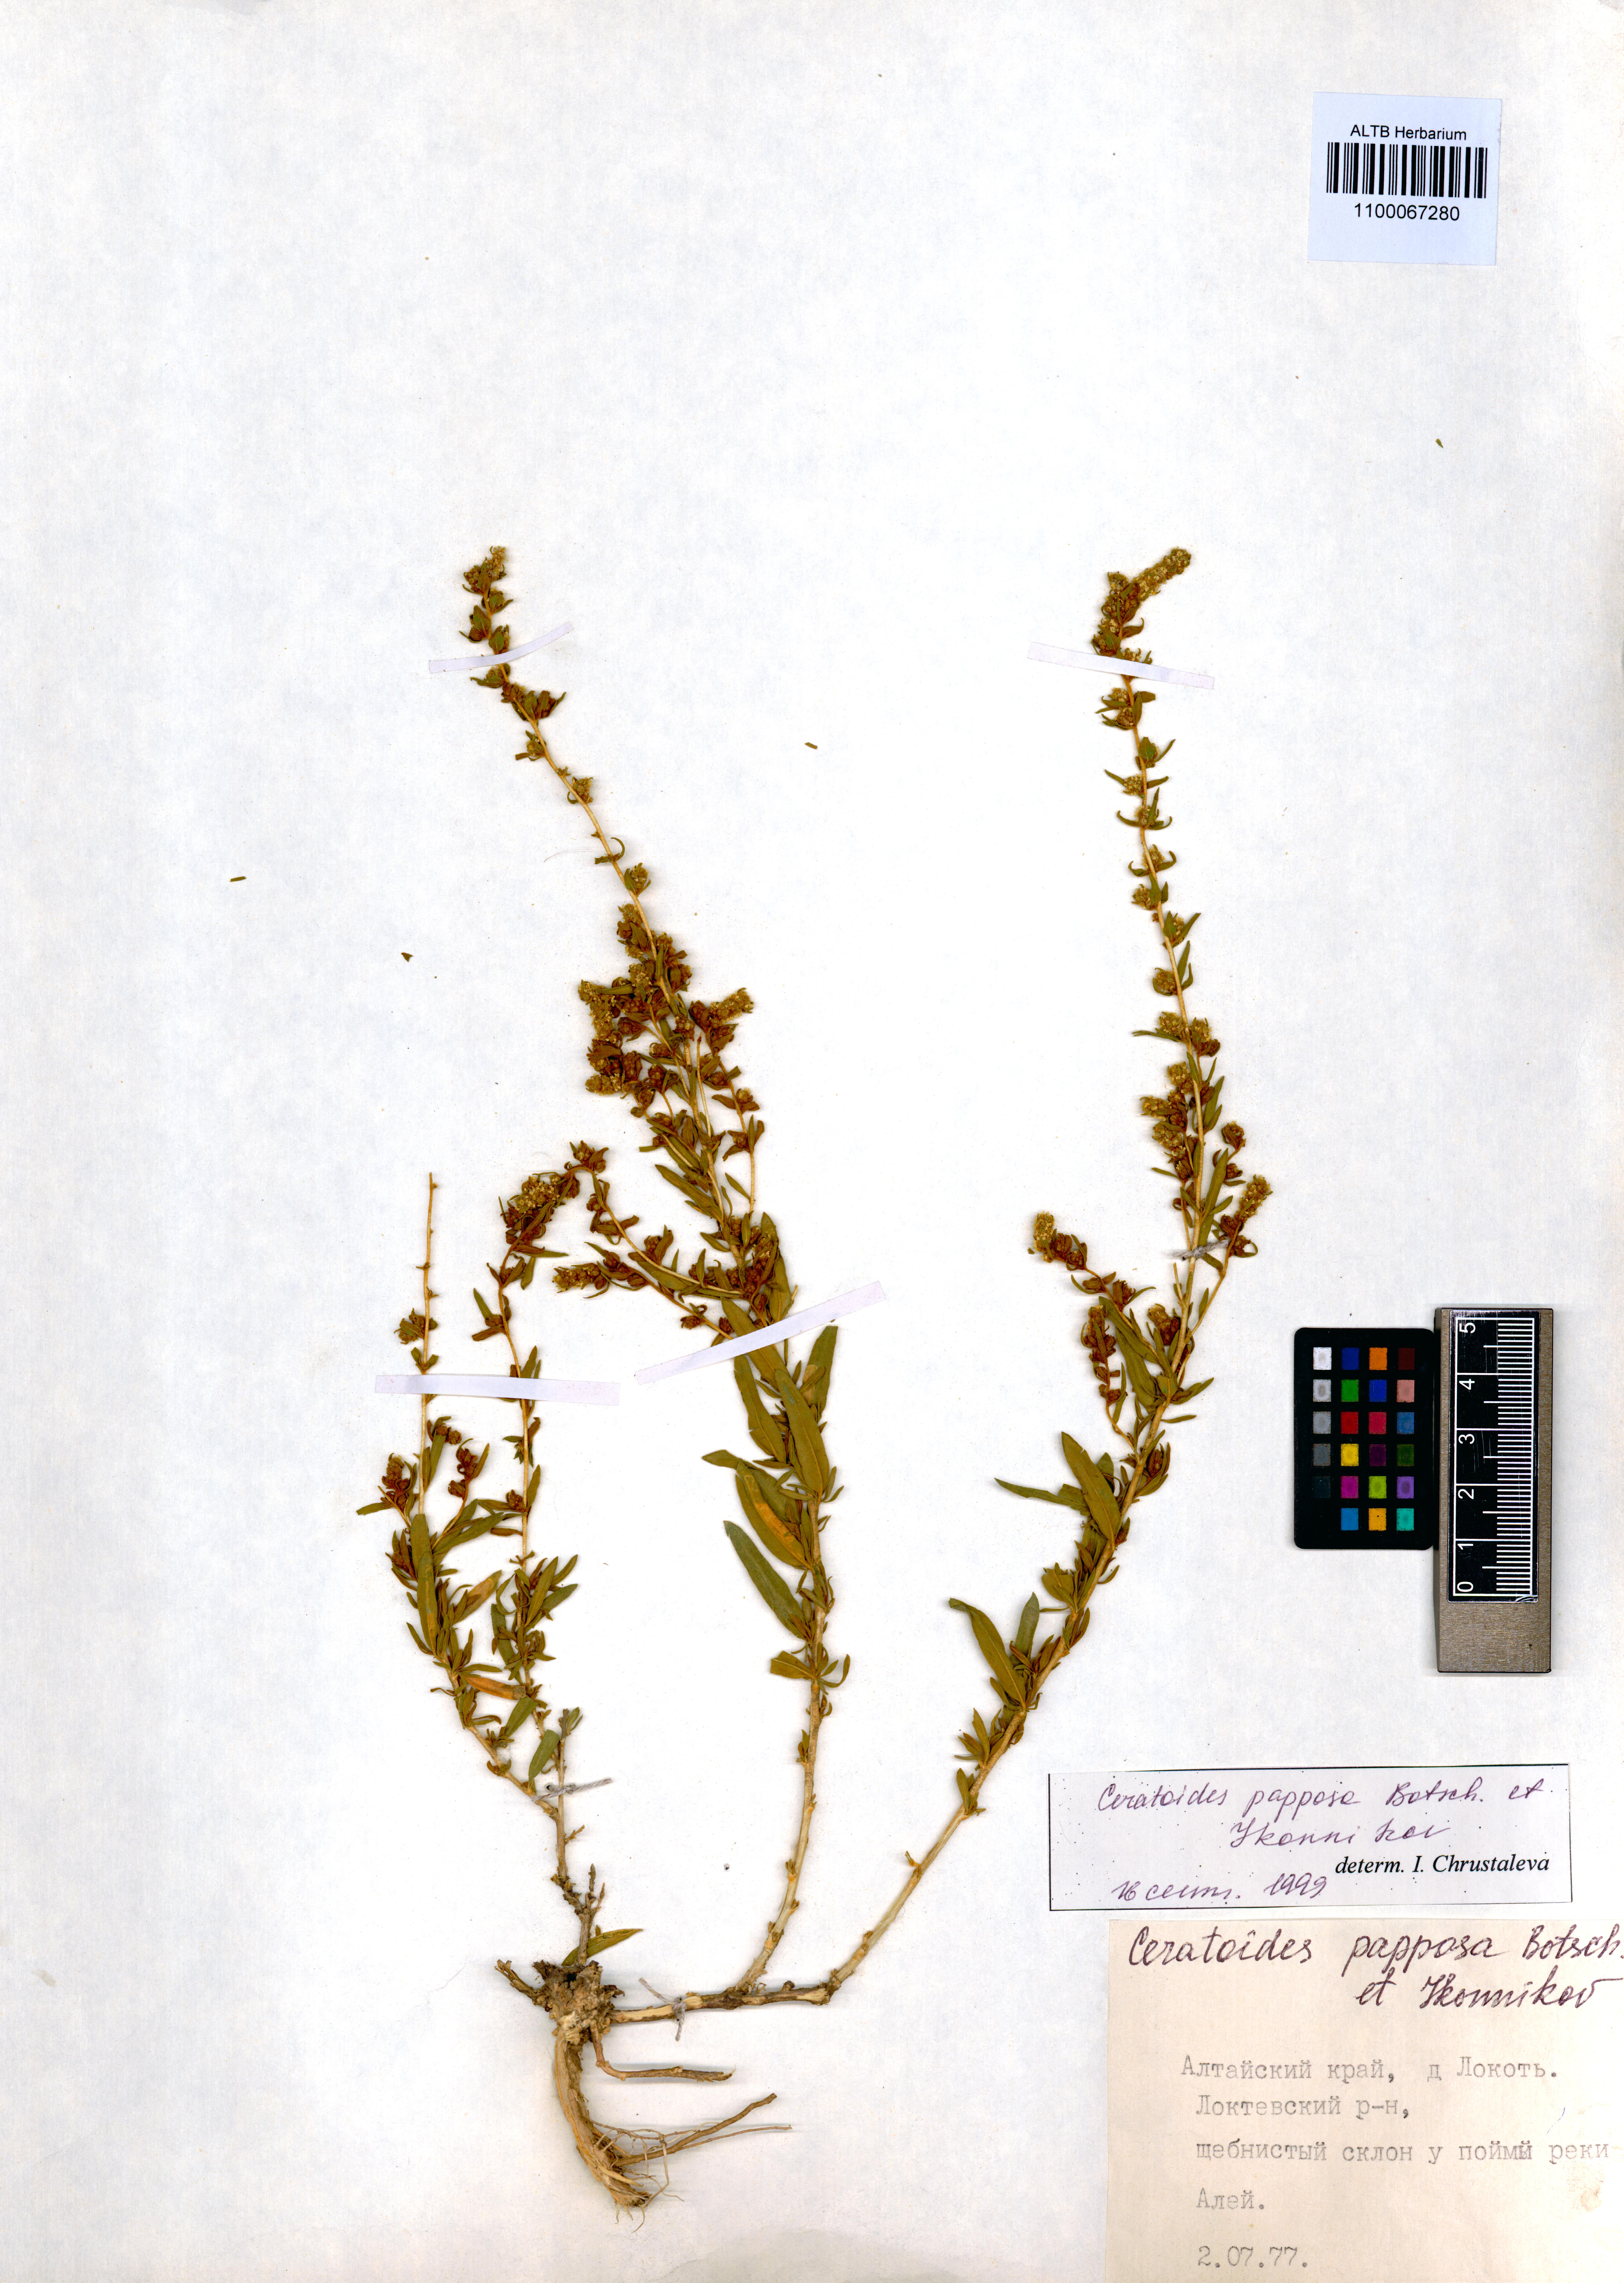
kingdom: Plantae
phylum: Tracheophyta
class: Magnoliopsida
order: Caryophyllales
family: Amaranthaceae
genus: Krascheninnikovia
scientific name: Krascheninnikovia ceratoides
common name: Pamirian winterfat
